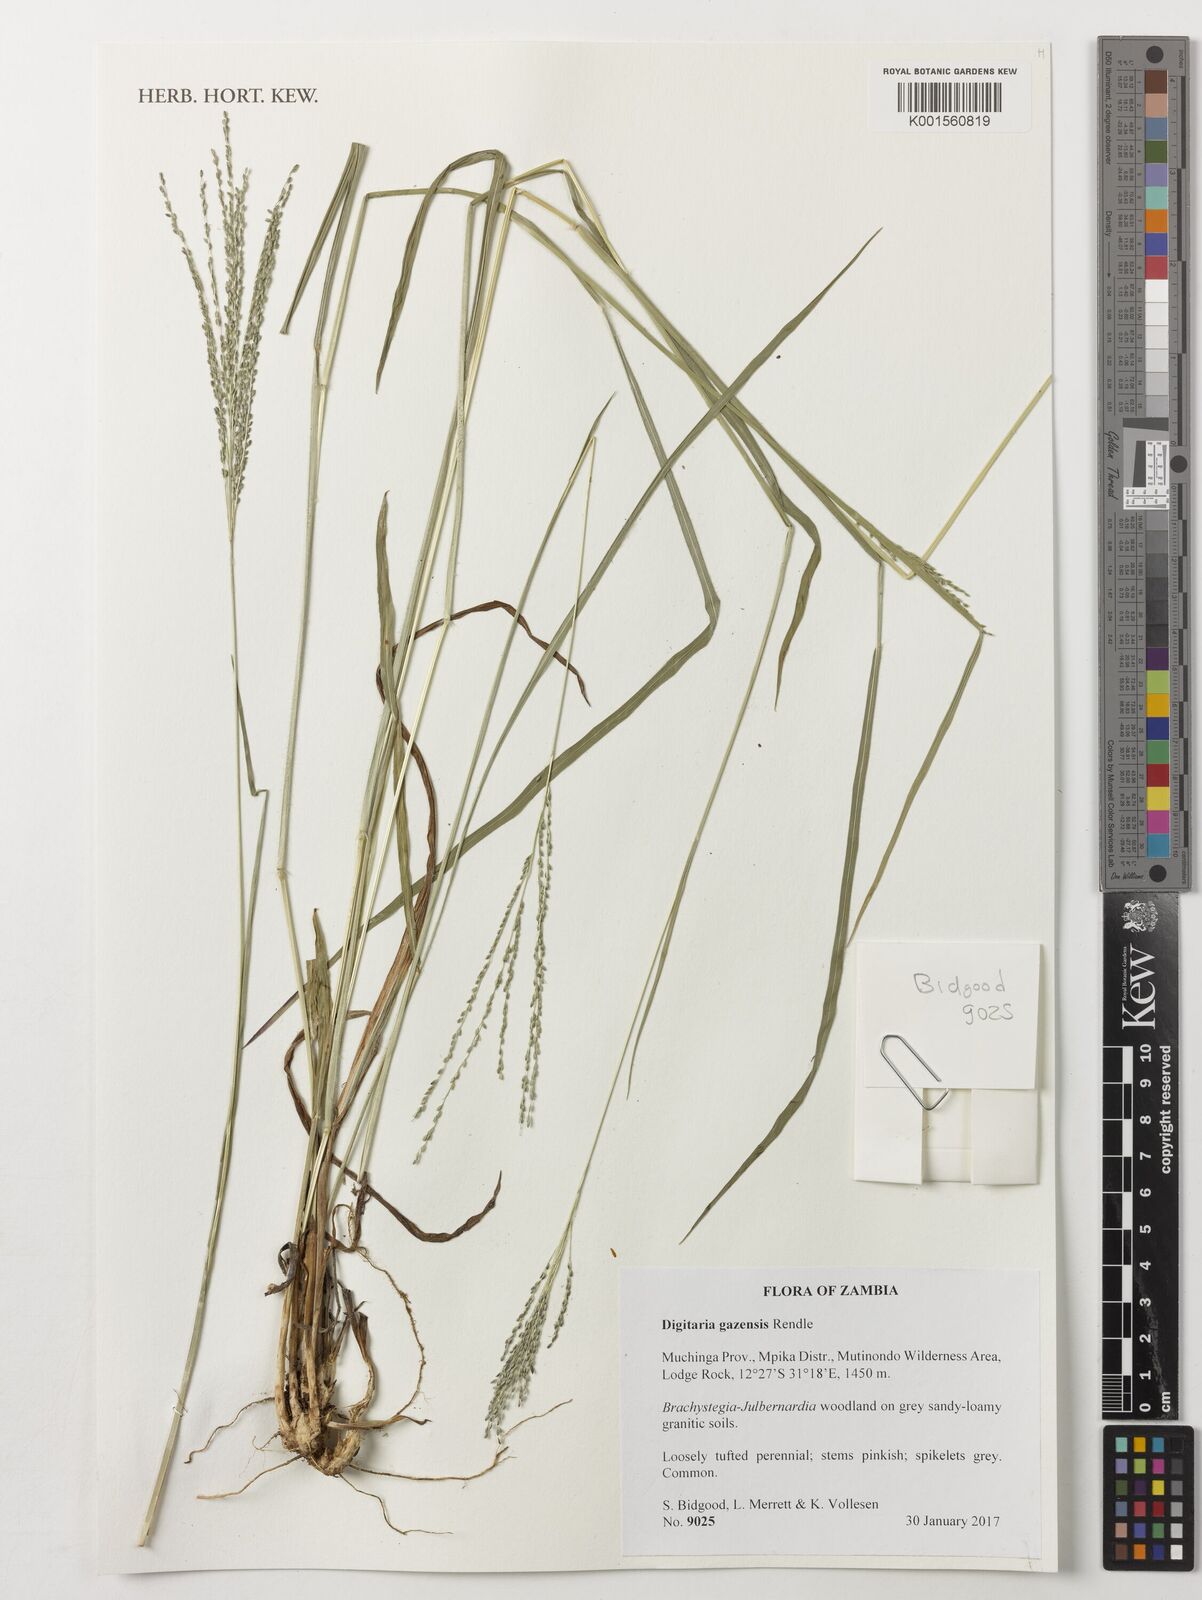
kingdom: Plantae
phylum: Tracheophyta
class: Liliopsida
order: Poales
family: Poaceae
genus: Digitaria
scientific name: Digitaria gazensis
